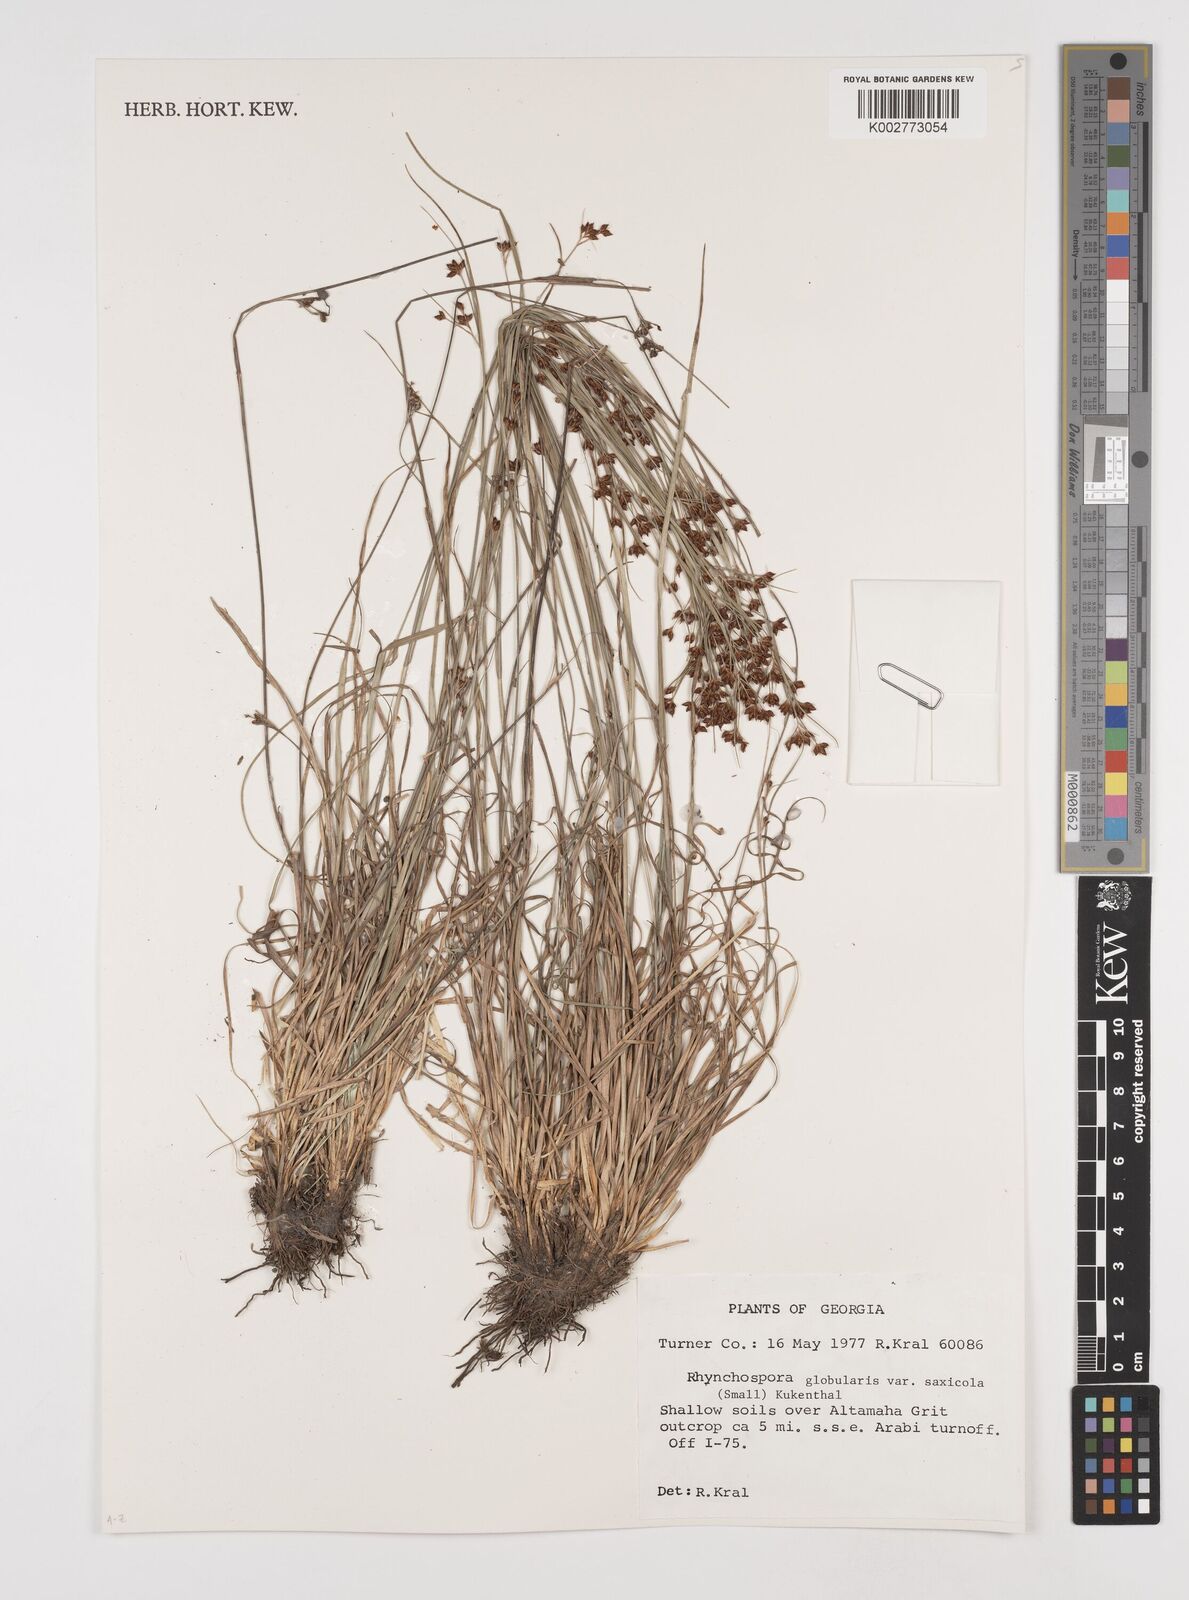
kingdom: Plantae
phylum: Tracheophyta
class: Liliopsida
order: Poales
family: Cyperaceae
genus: Rhynchospora
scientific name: Rhynchospora globularis
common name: Globe beaksedge
